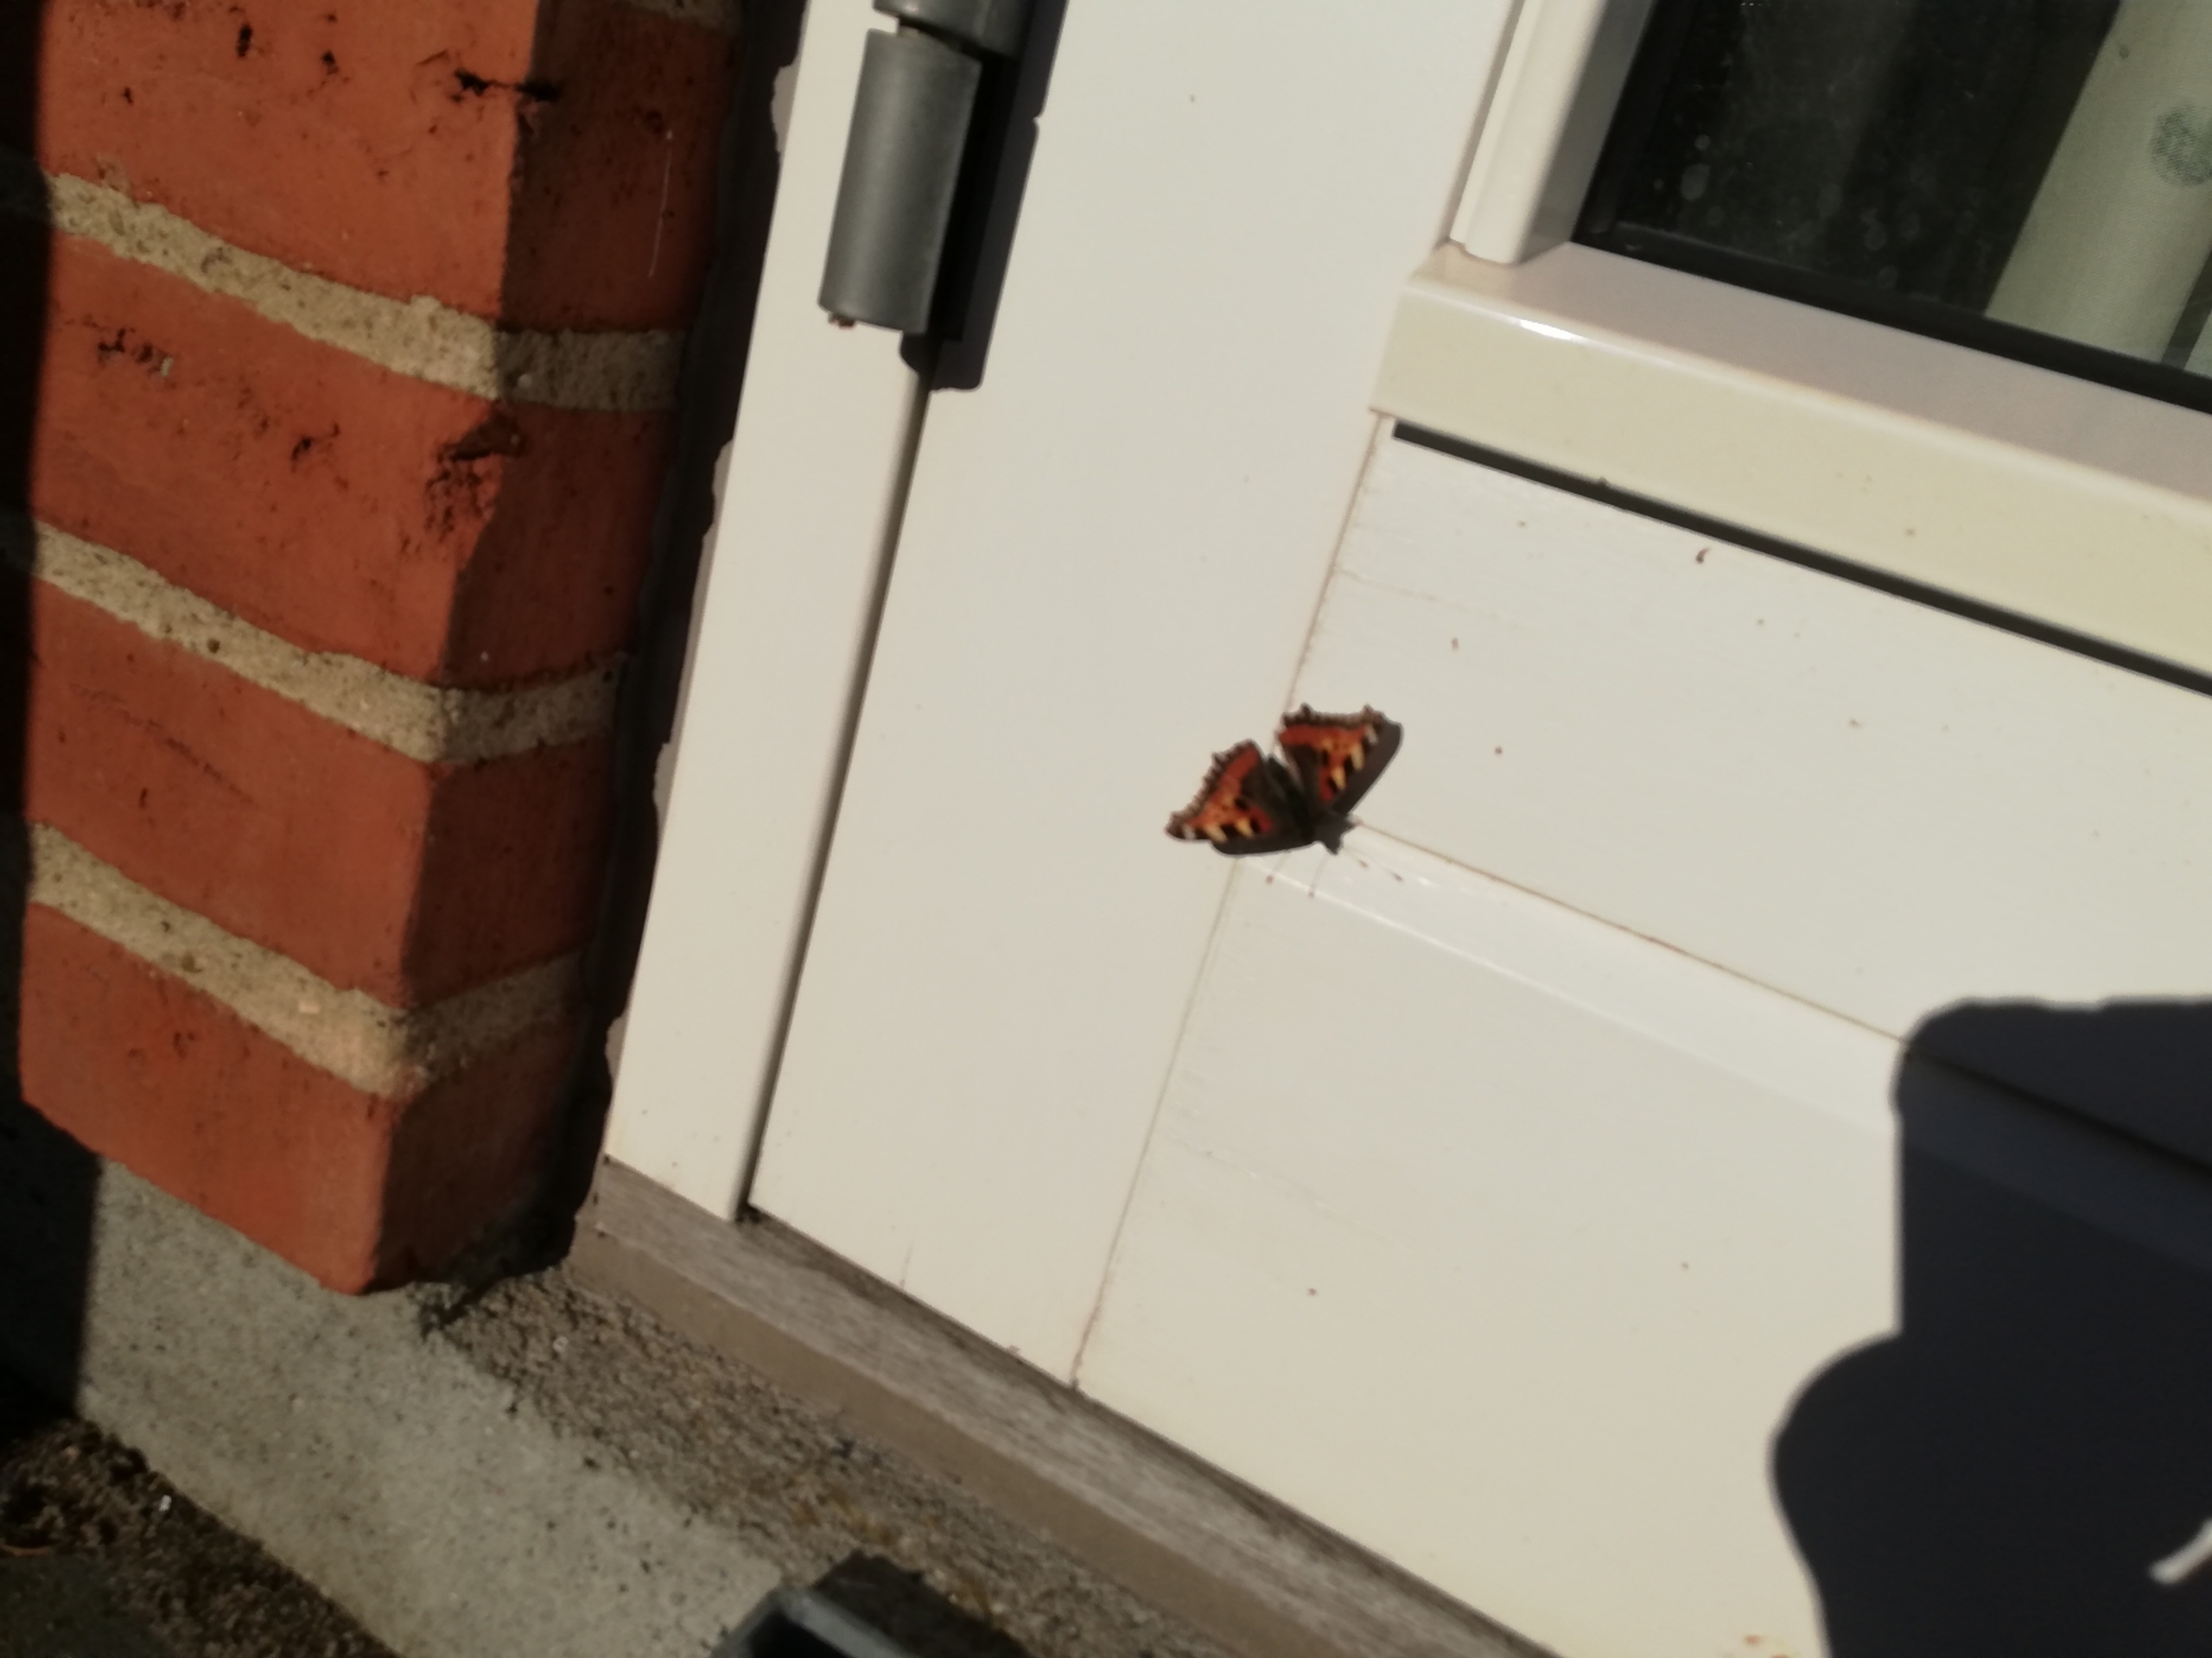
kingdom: Animalia
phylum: Arthropoda
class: Insecta
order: Lepidoptera
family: Nymphalidae
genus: Aglais
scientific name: Aglais urticae
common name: Nældens takvinge
